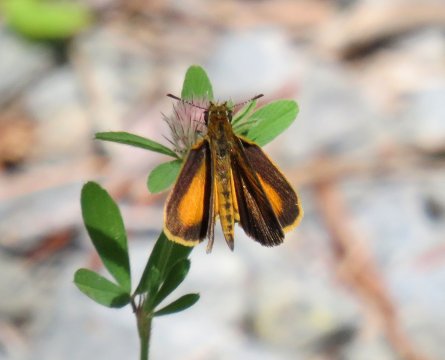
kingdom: Animalia
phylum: Arthropoda
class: Insecta
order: Lepidoptera
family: Hesperiidae
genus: Ancyloxypha
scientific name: Ancyloxypha numitor
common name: Least Skipper
